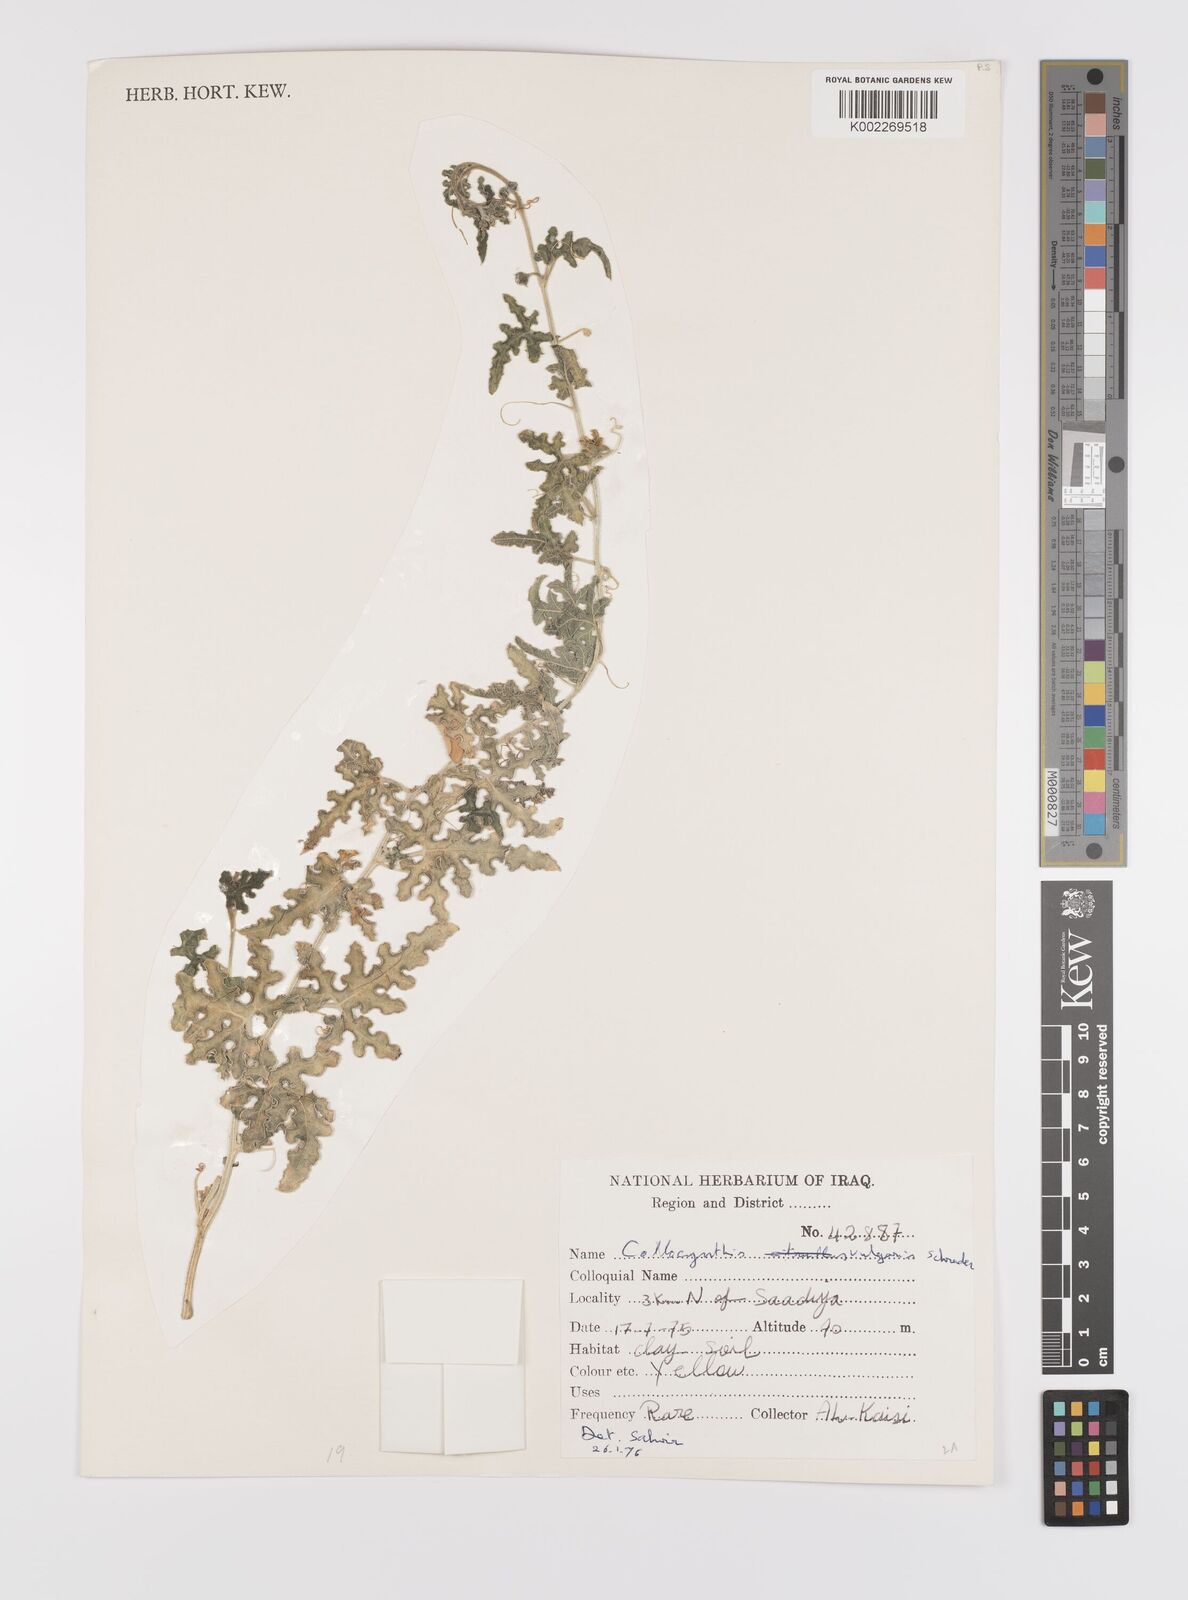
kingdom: Plantae
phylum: Tracheophyta
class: Magnoliopsida
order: Cucurbitales
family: Cucurbitaceae
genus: Citrullus
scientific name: Citrullus colocynthis
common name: Colocynth
